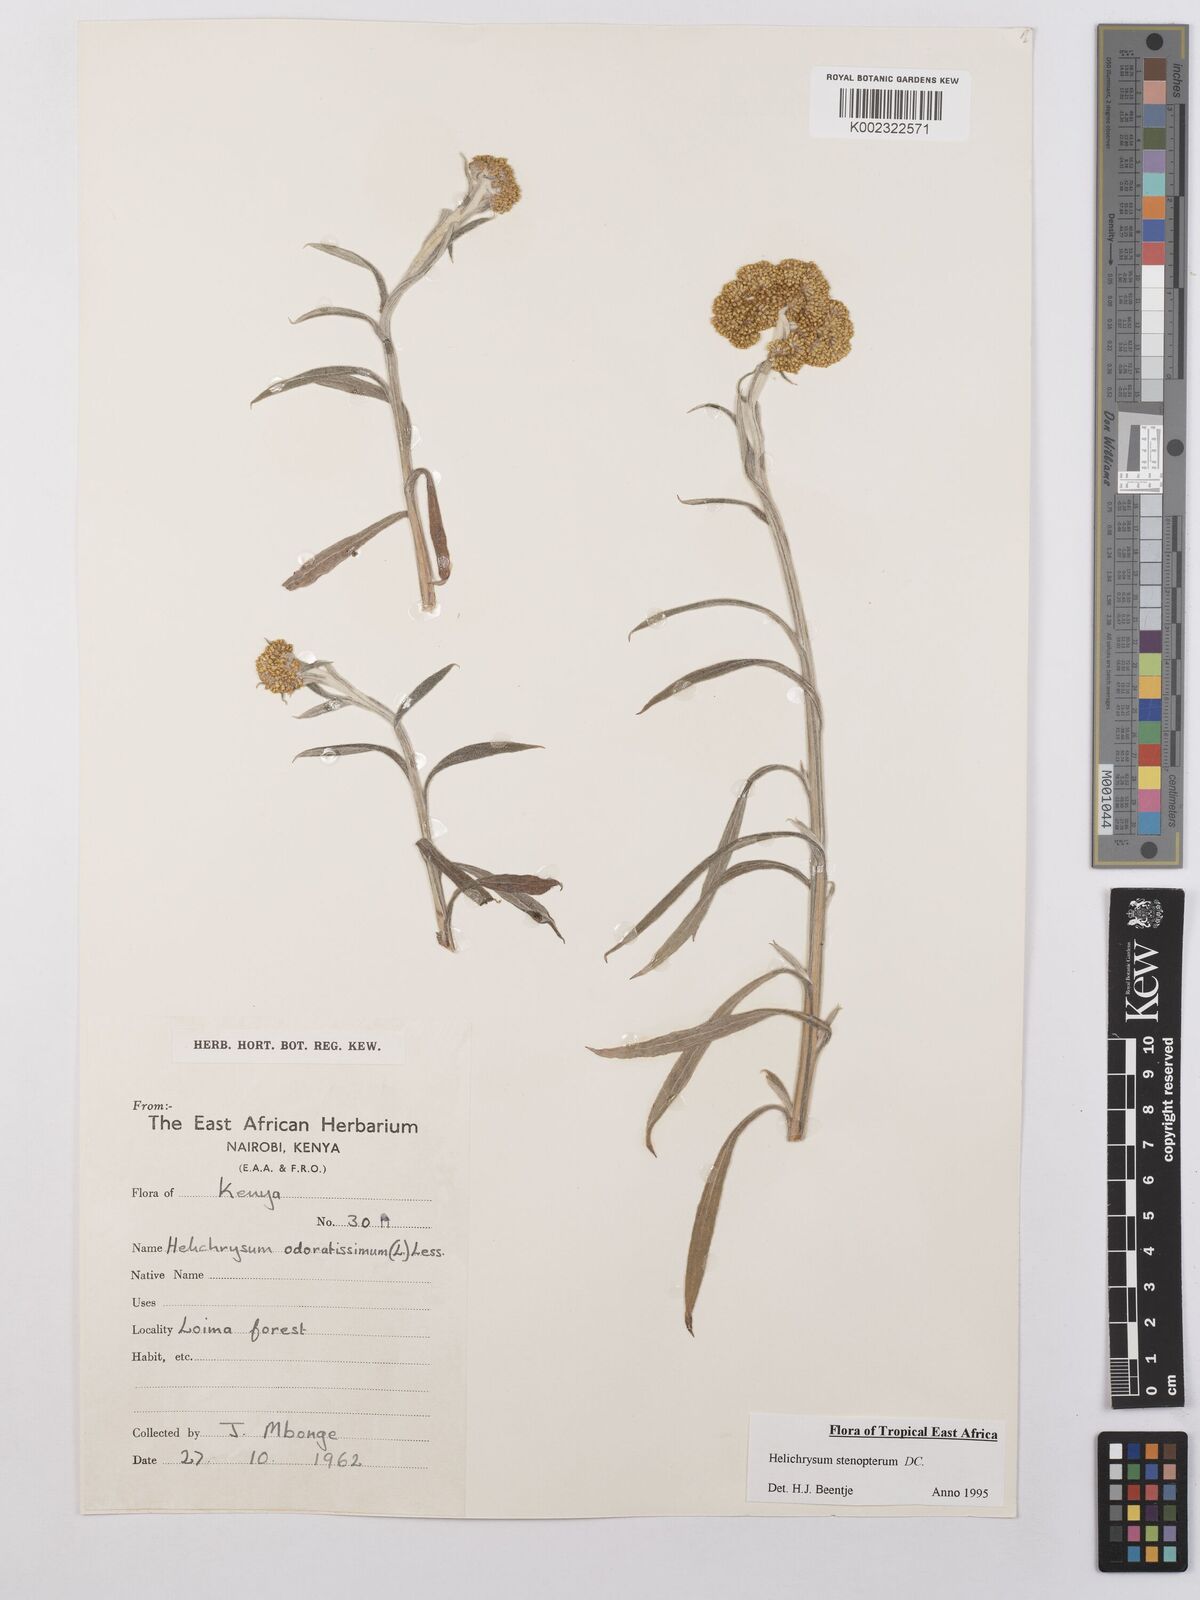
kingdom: Plantae
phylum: Tracheophyta
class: Magnoliopsida
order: Asterales
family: Asteraceae
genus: Helichrysum
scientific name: Helichrysum stenopterum
